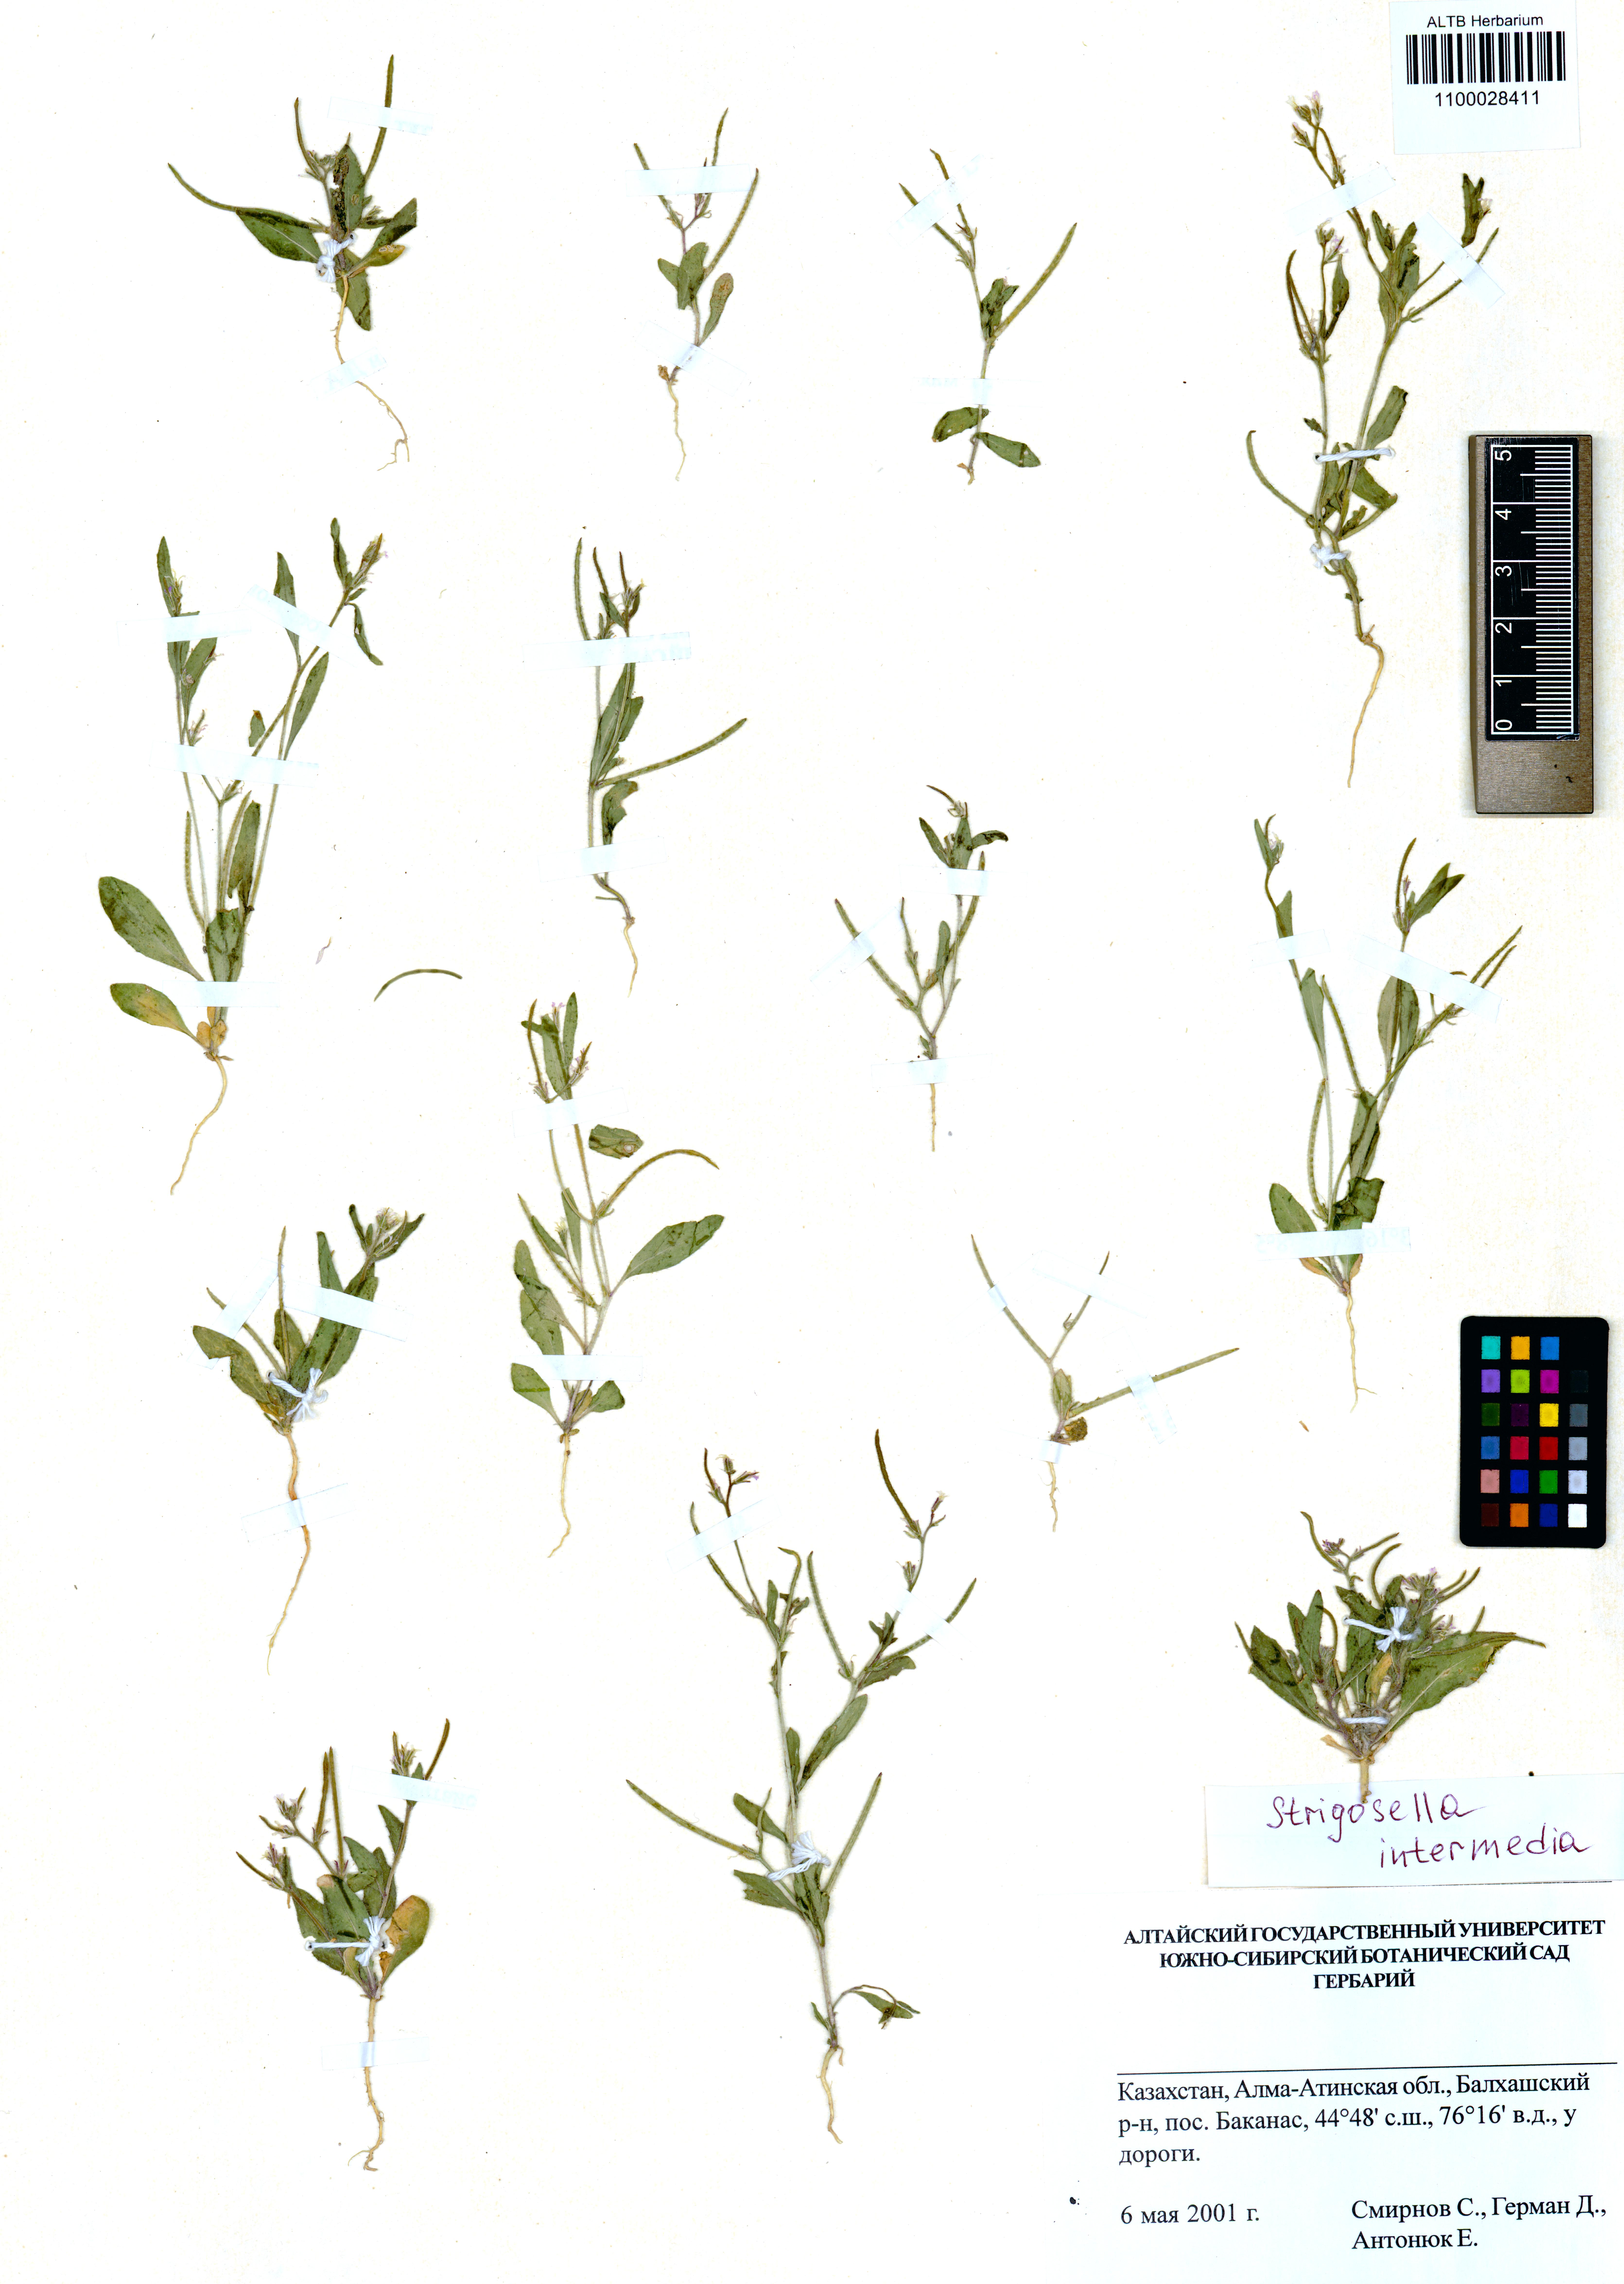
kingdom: Plantae
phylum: Tracheophyta
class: Magnoliopsida
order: Brassicales
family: Brassicaceae
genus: Strigosella
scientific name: Strigosella intermedia
